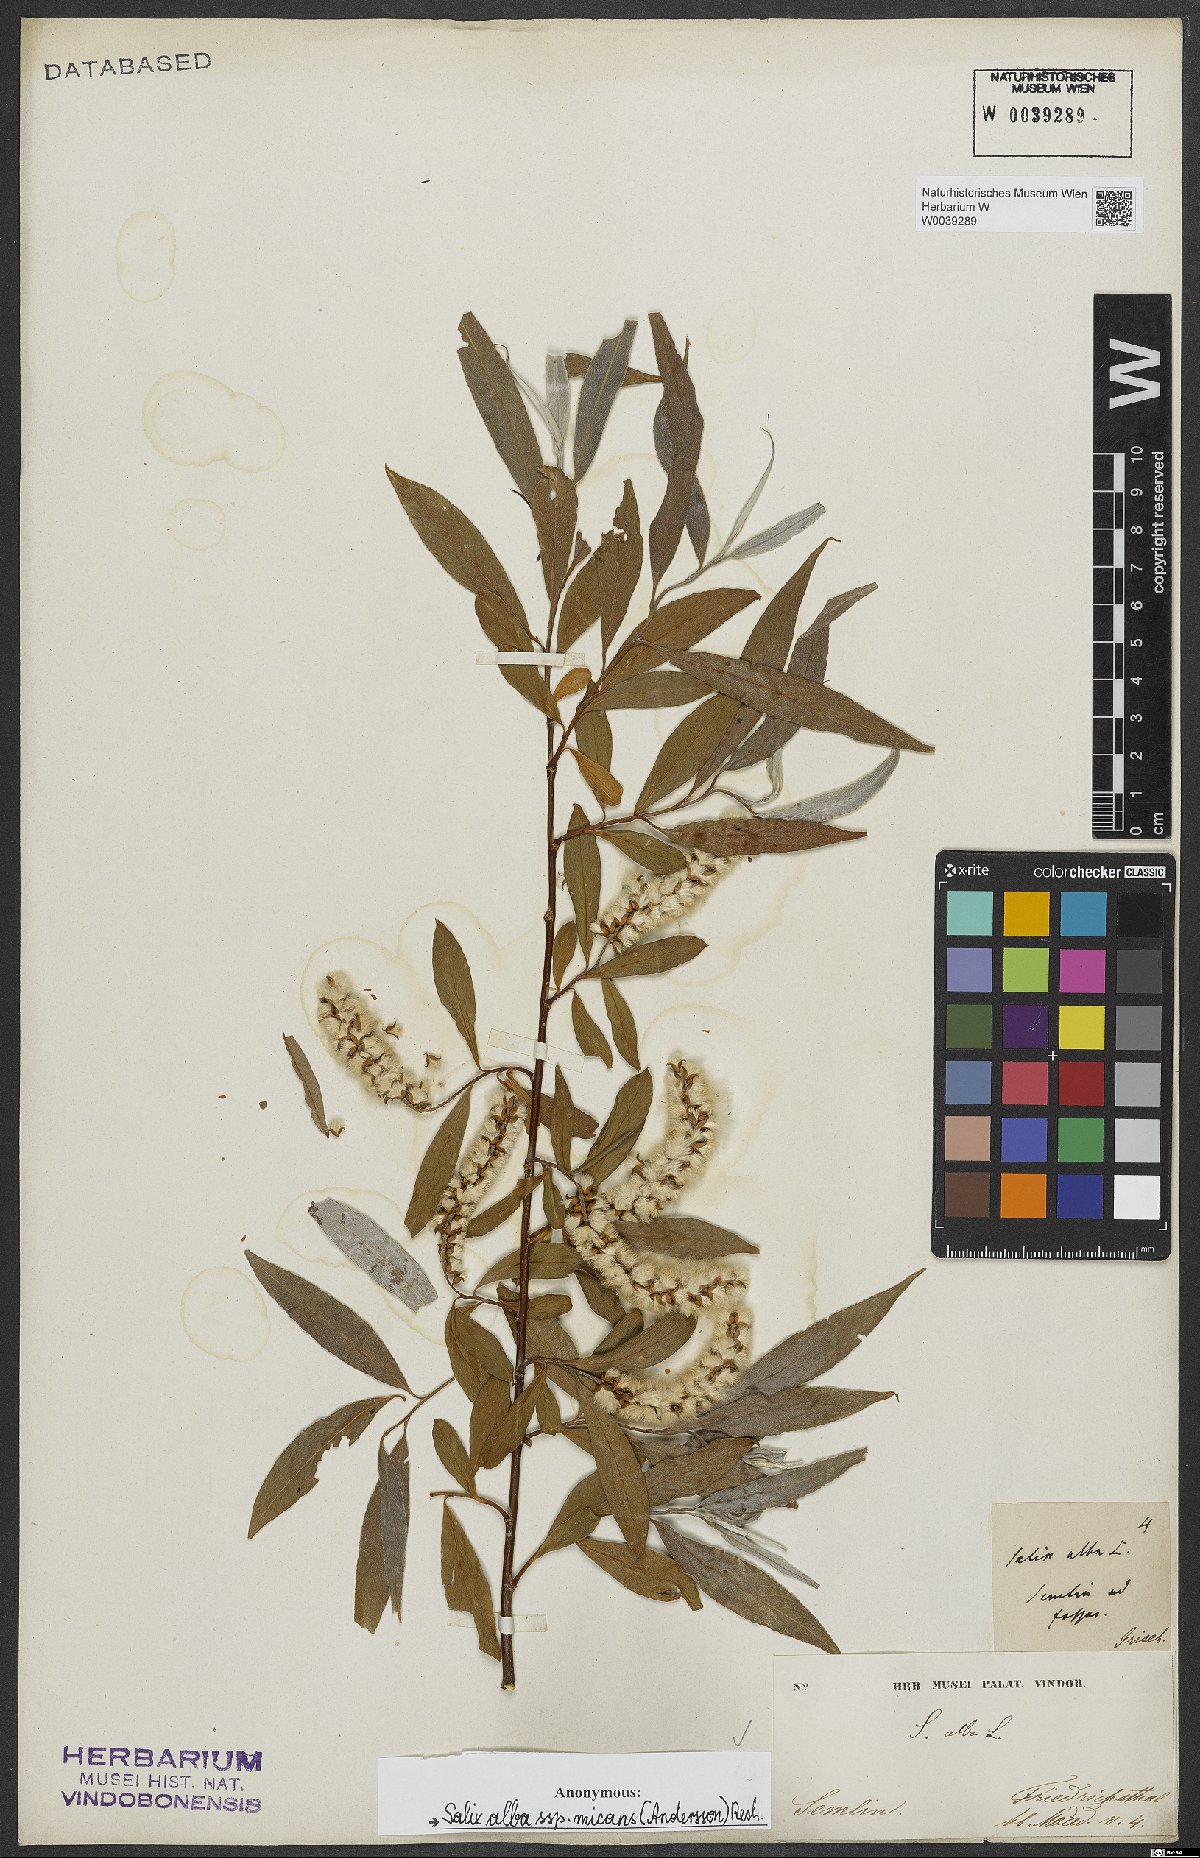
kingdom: Plantae
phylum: Tracheophyta
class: Magnoliopsida
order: Malpighiales
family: Salicaceae
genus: Salix
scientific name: Salix alba
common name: White willow
